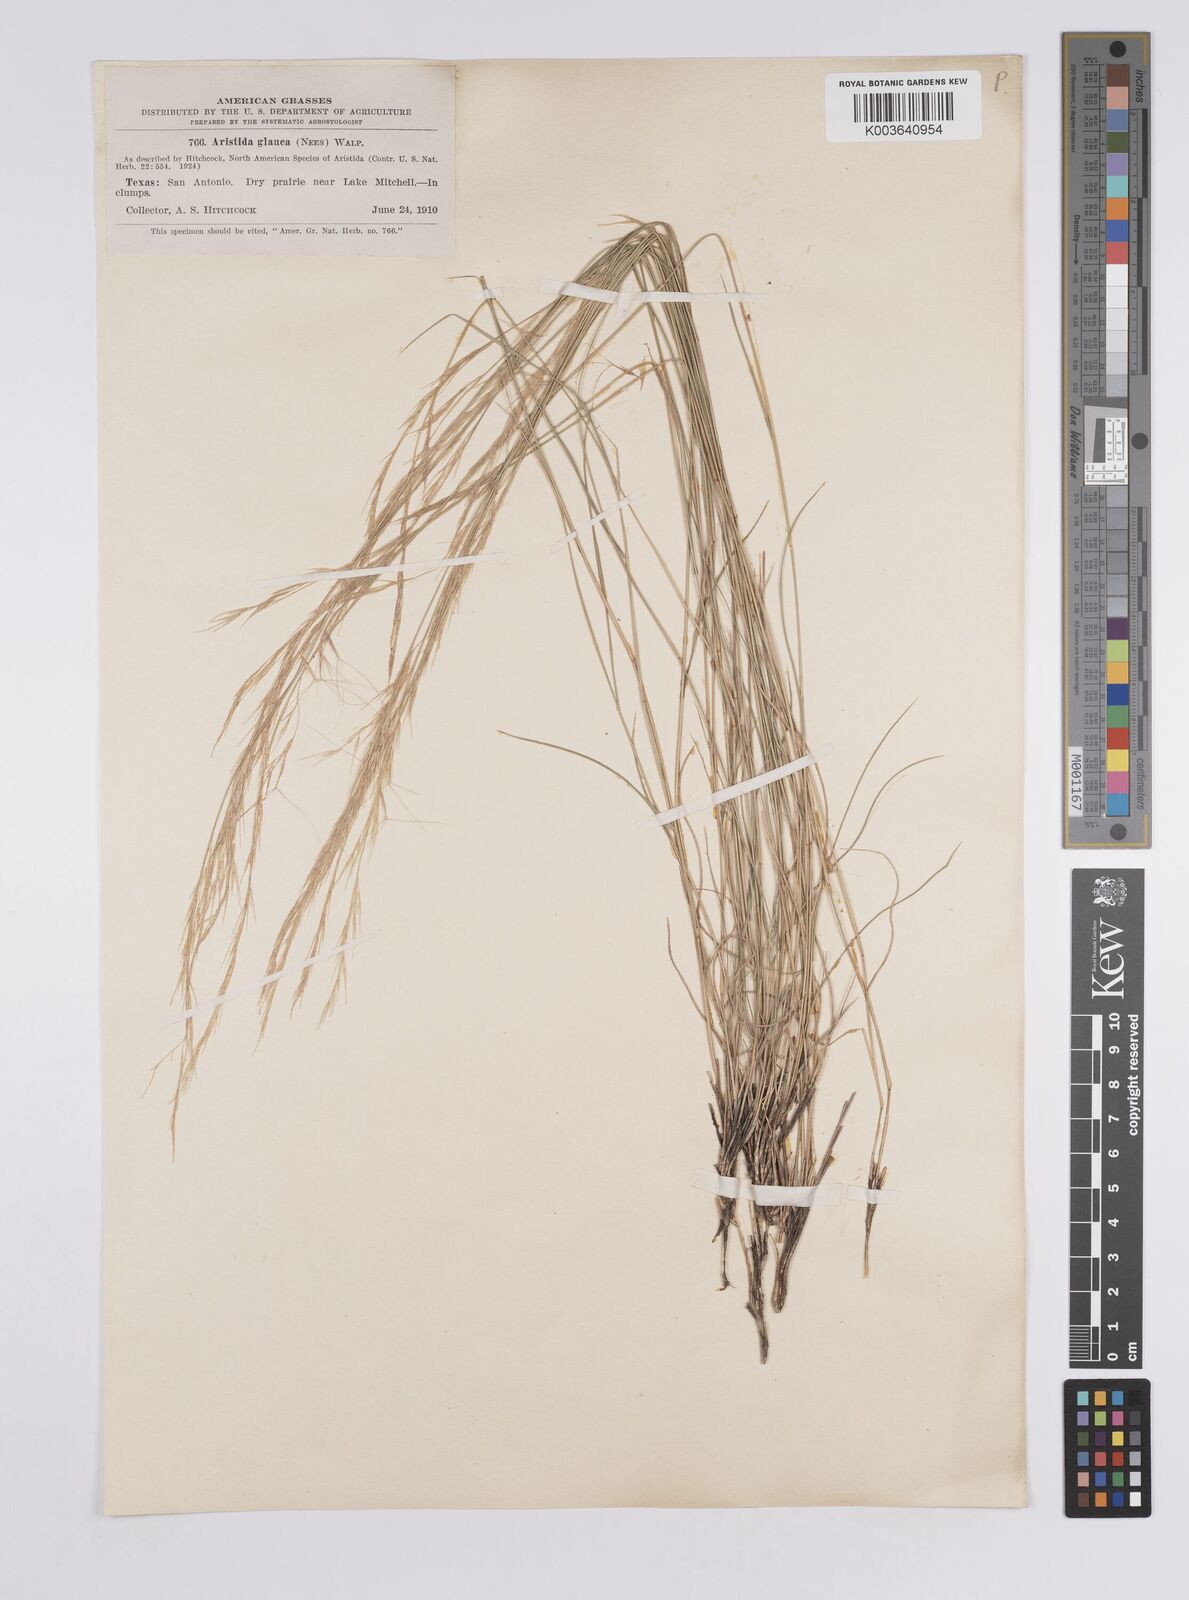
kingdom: Plantae
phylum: Tracheophyta
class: Liliopsida
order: Poales
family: Poaceae
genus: Aristida
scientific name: Aristida purpurea
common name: Purple threeawn
